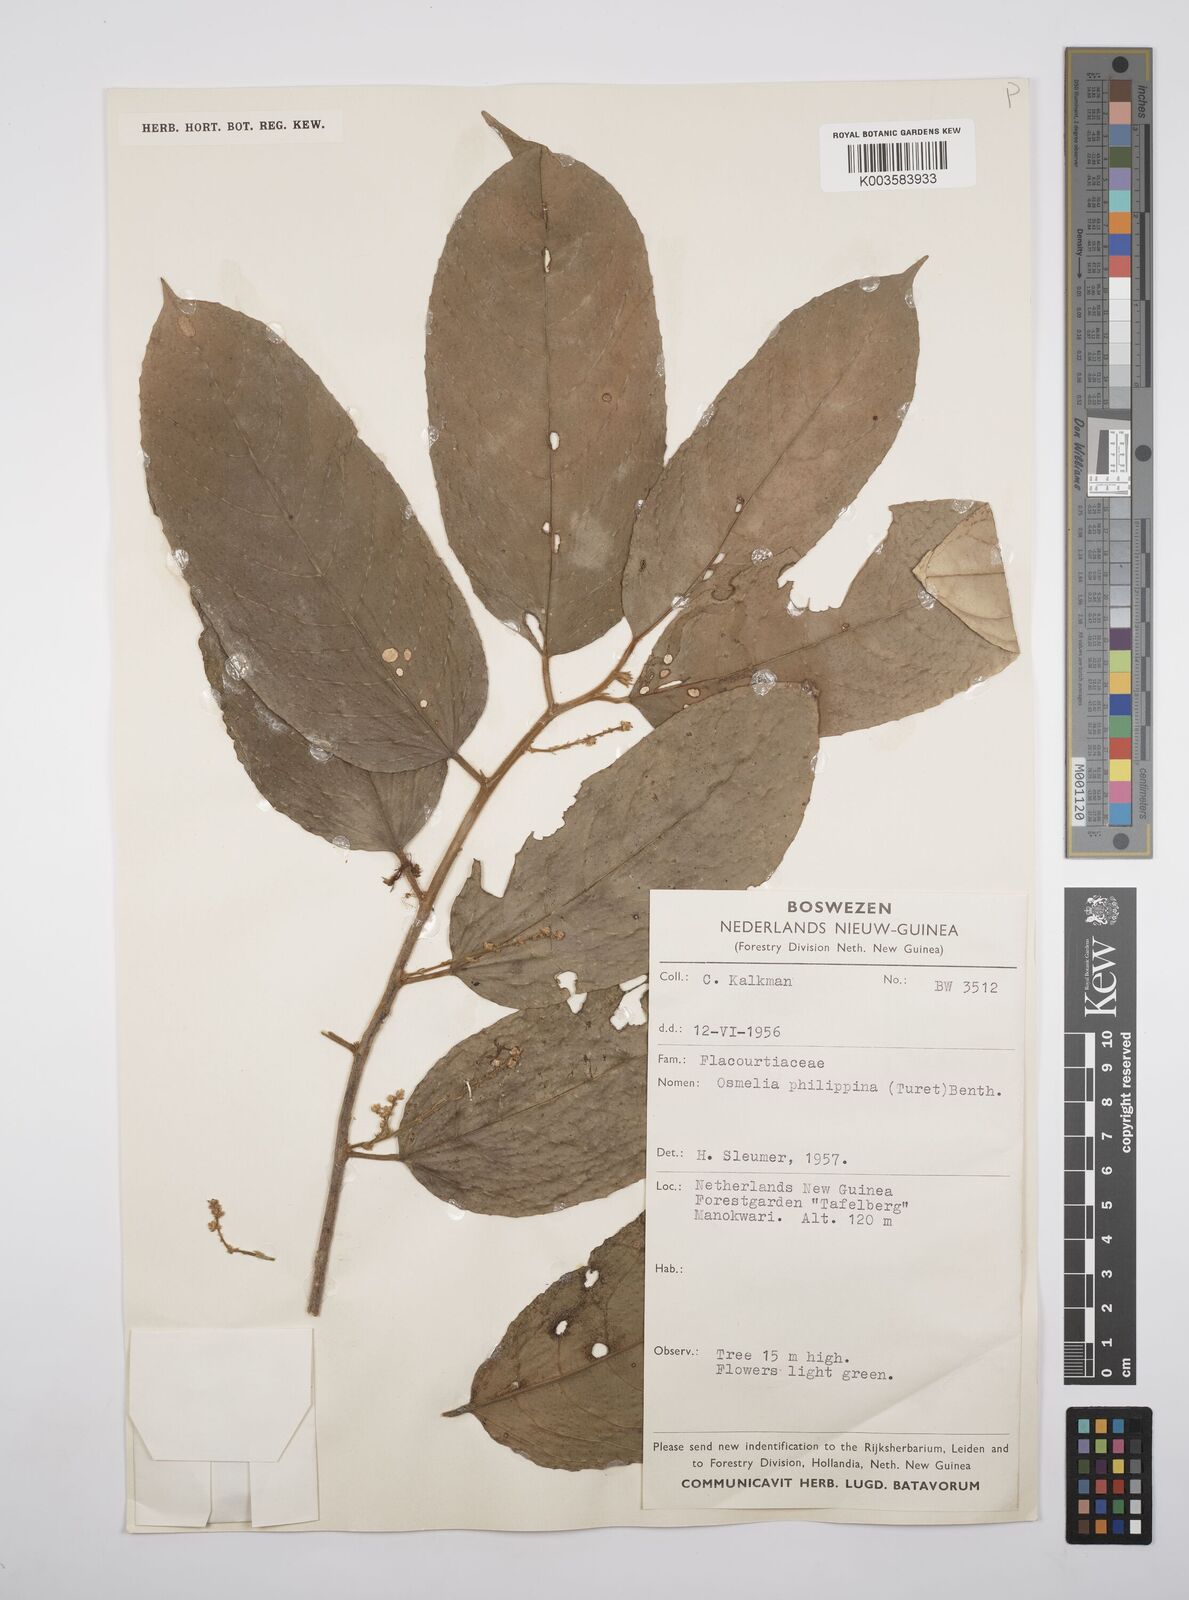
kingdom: Plantae
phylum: Tracheophyta
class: Magnoliopsida
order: Malpighiales
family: Salicaceae
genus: Osmelia
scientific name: Osmelia philippina
